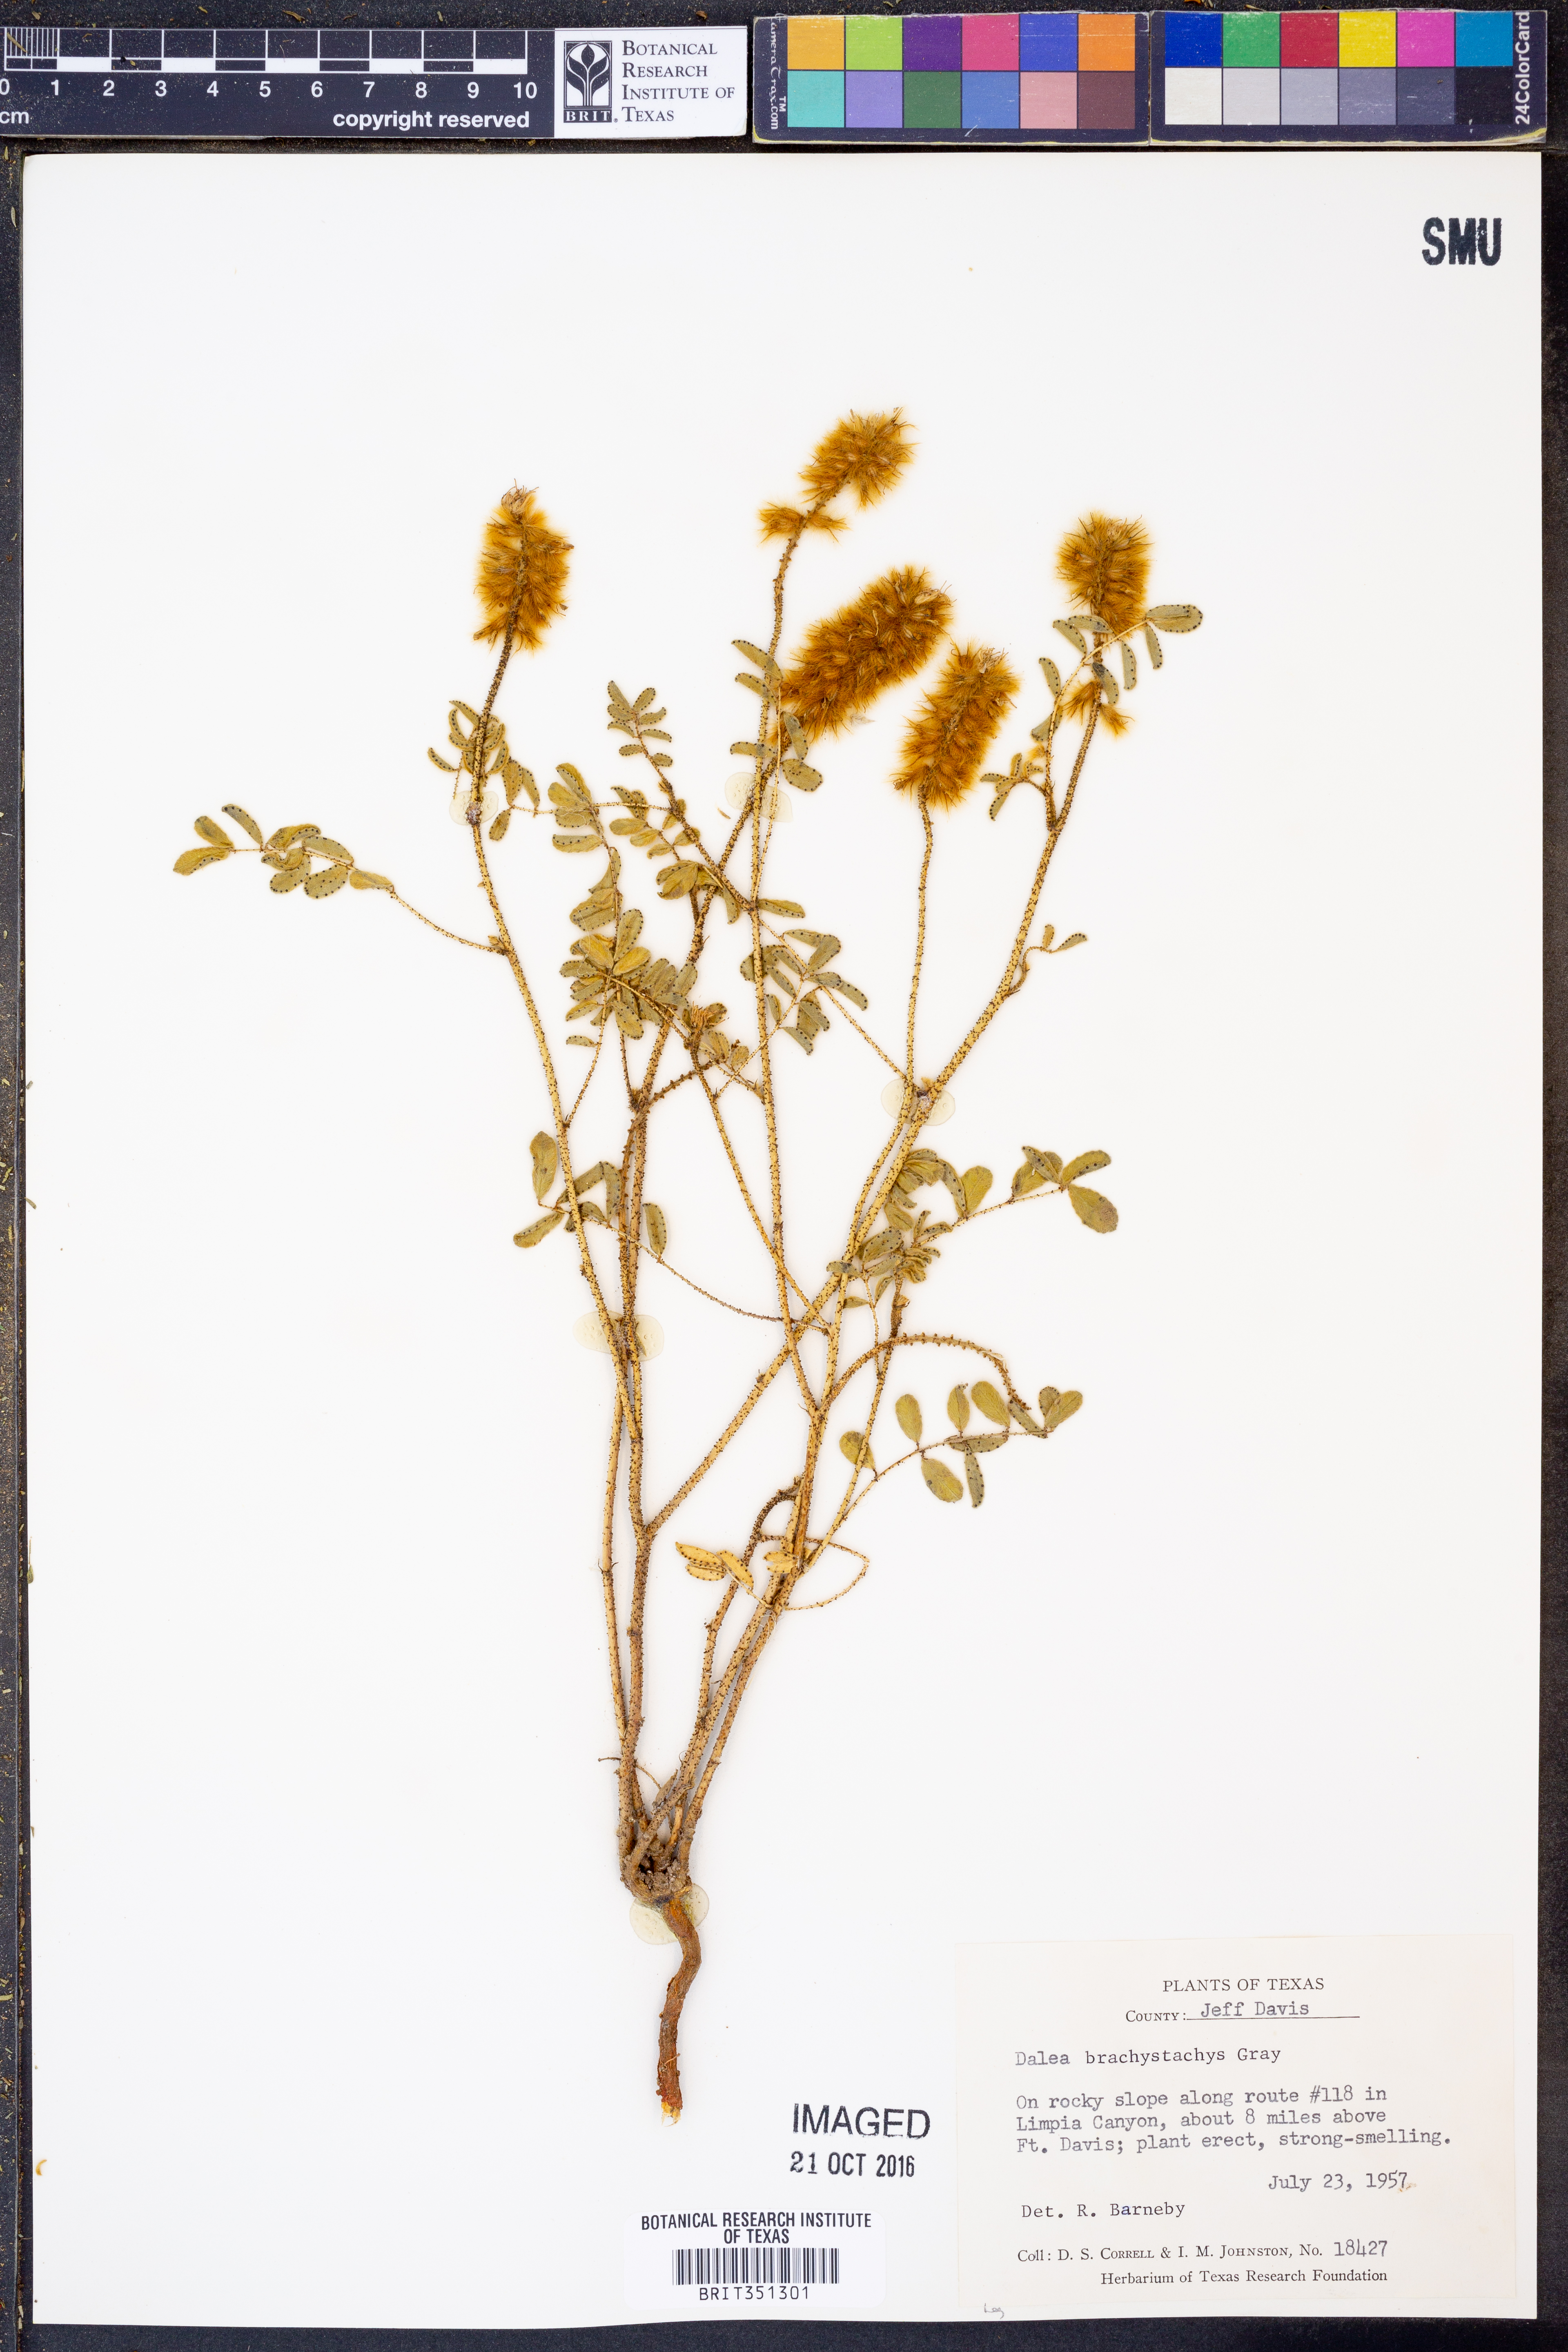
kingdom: Plantae
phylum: Tracheophyta
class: Magnoliopsida
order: Fabales
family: Fabaceae
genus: Dalea
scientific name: Dalea brachystachys
